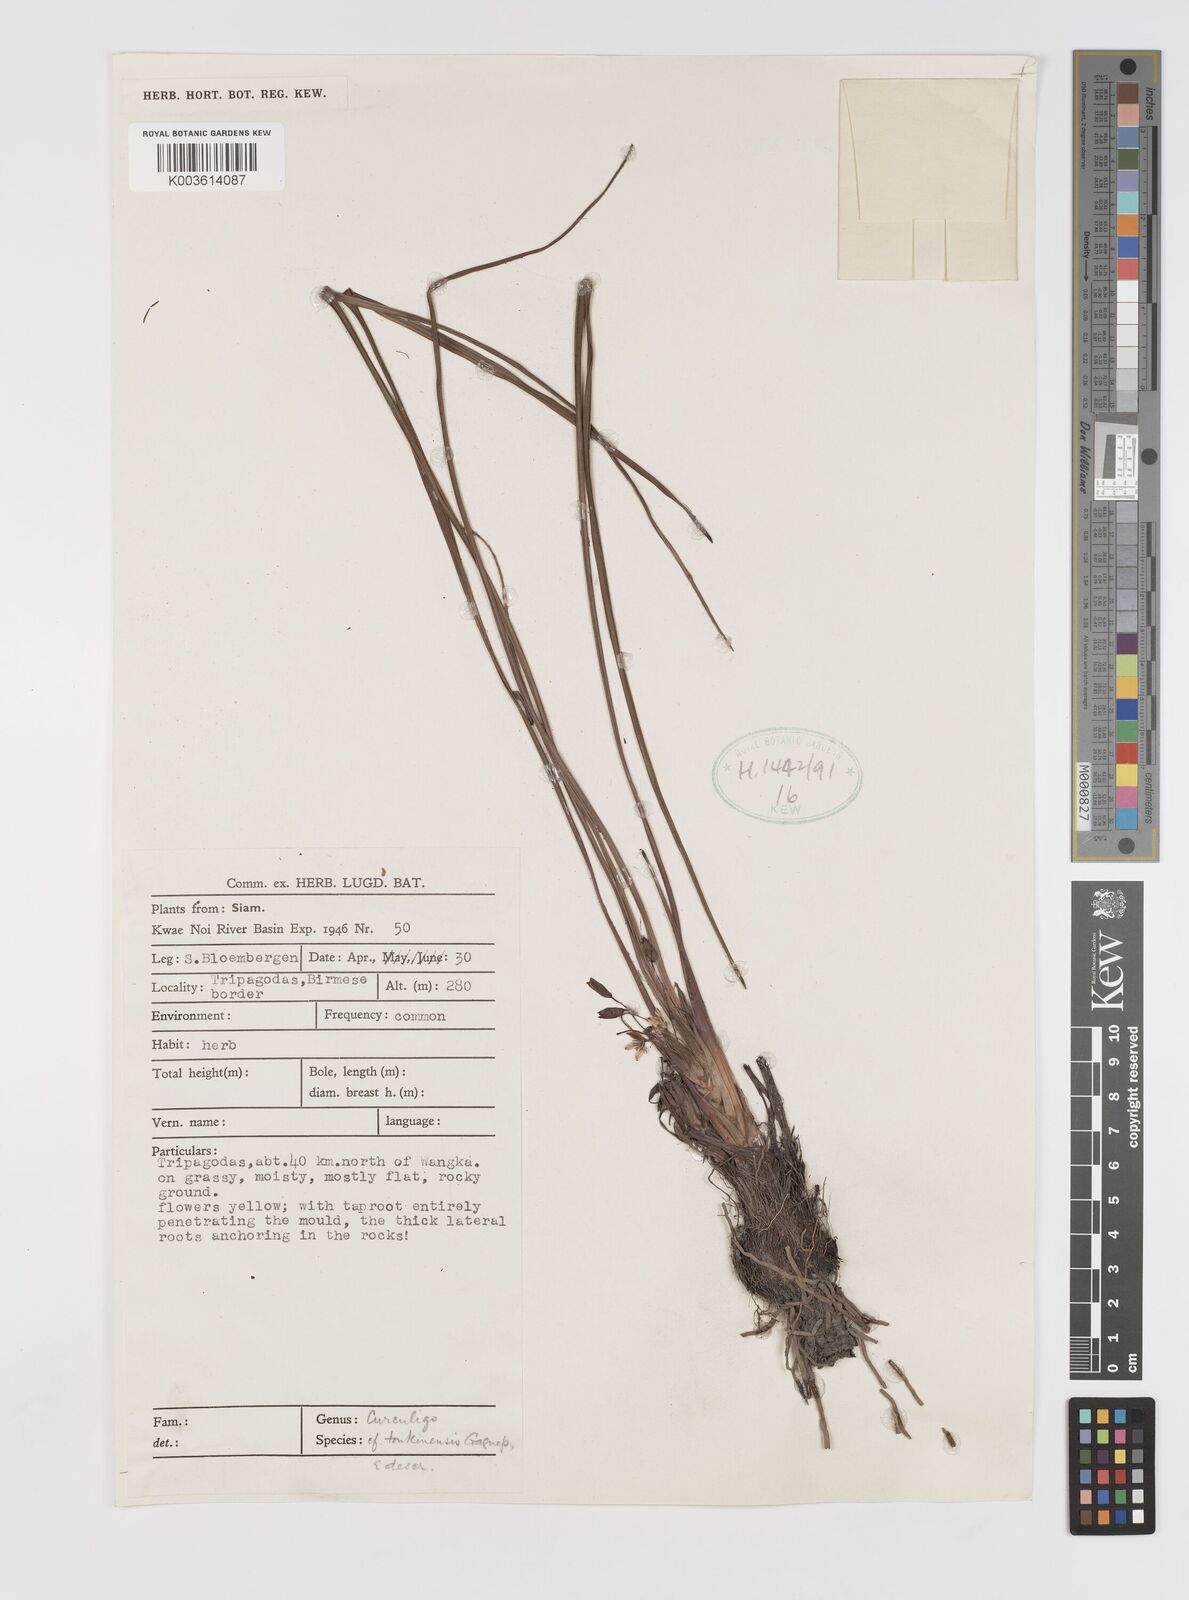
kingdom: Plantae
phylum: Tracheophyta
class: Liliopsida
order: Asparagales
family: Hypoxidaceae
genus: Curculigo
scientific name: Curculigo tonkinensis
